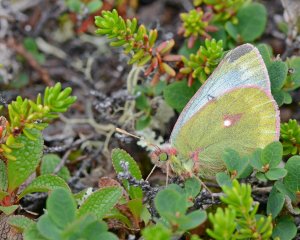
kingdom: Animalia
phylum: Arthropoda
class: Insecta
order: Lepidoptera
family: Pieridae
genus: Colias
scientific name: Colias nastes
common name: Labrador Sulphur
